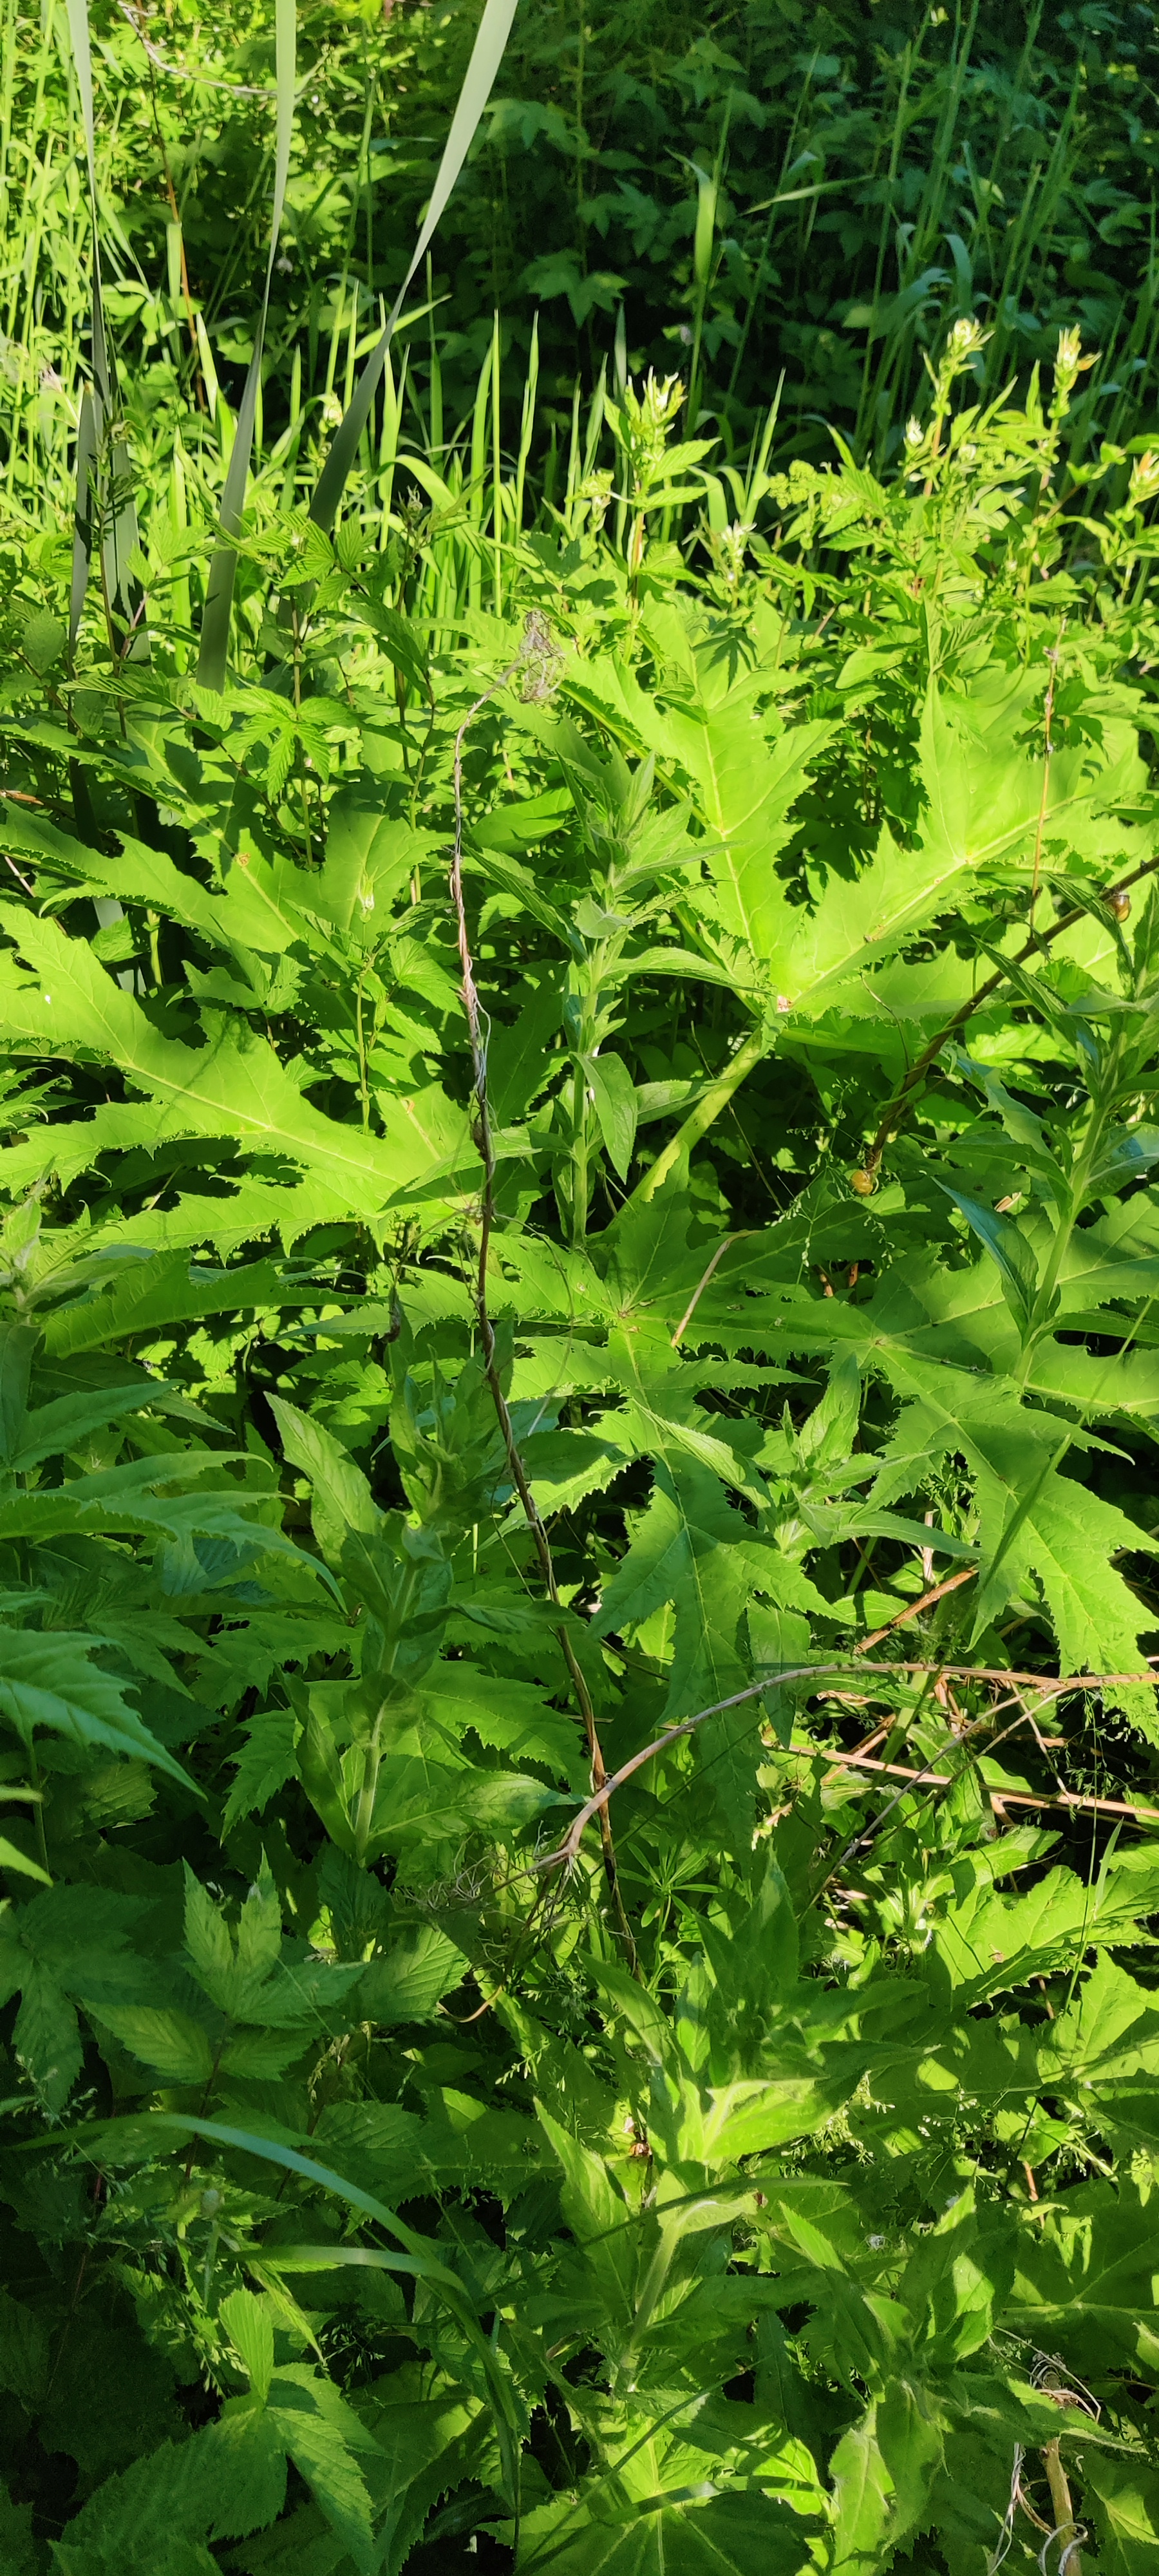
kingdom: Plantae
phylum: Tracheophyta
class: Magnoliopsida
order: Apiales
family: Apiaceae
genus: Heracleum
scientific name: Heracleum mantegazzianum
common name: Kæmpe-bjørneklo
